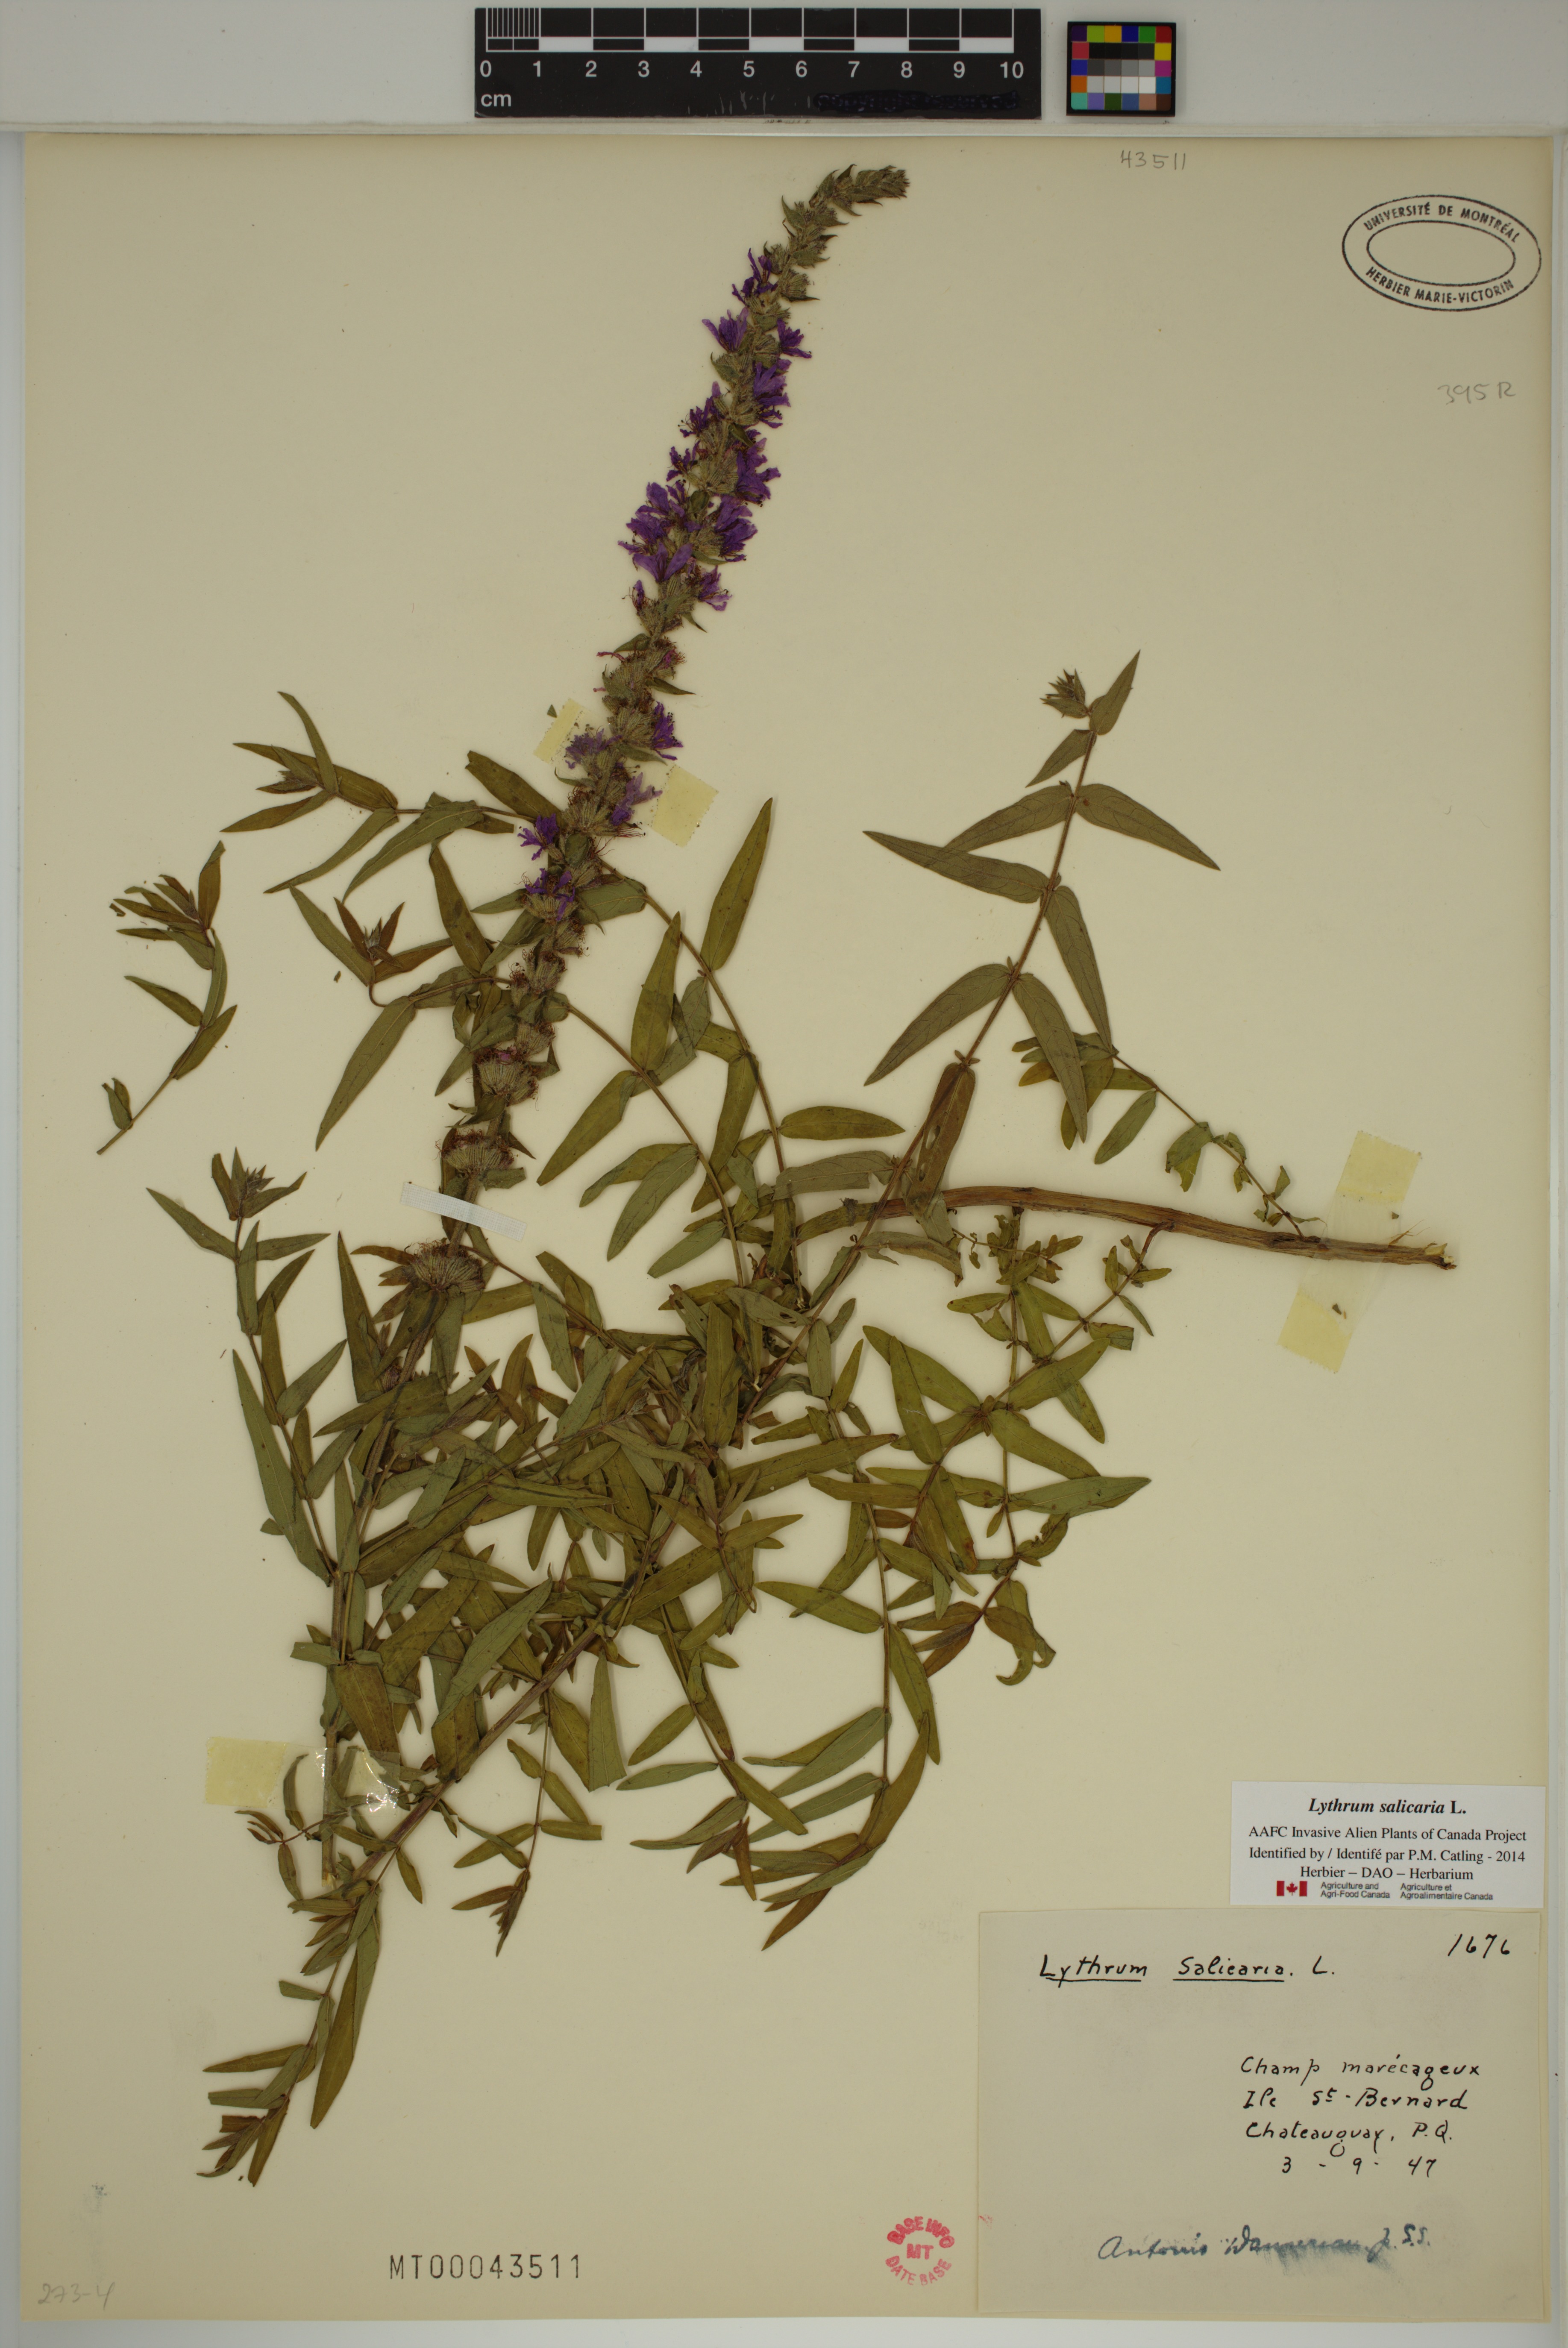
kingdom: Plantae
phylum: Tracheophyta
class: Magnoliopsida
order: Myrtales
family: Lythraceae
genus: Lythrum
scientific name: Lythrum salicaria
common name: Purple loosestrife
